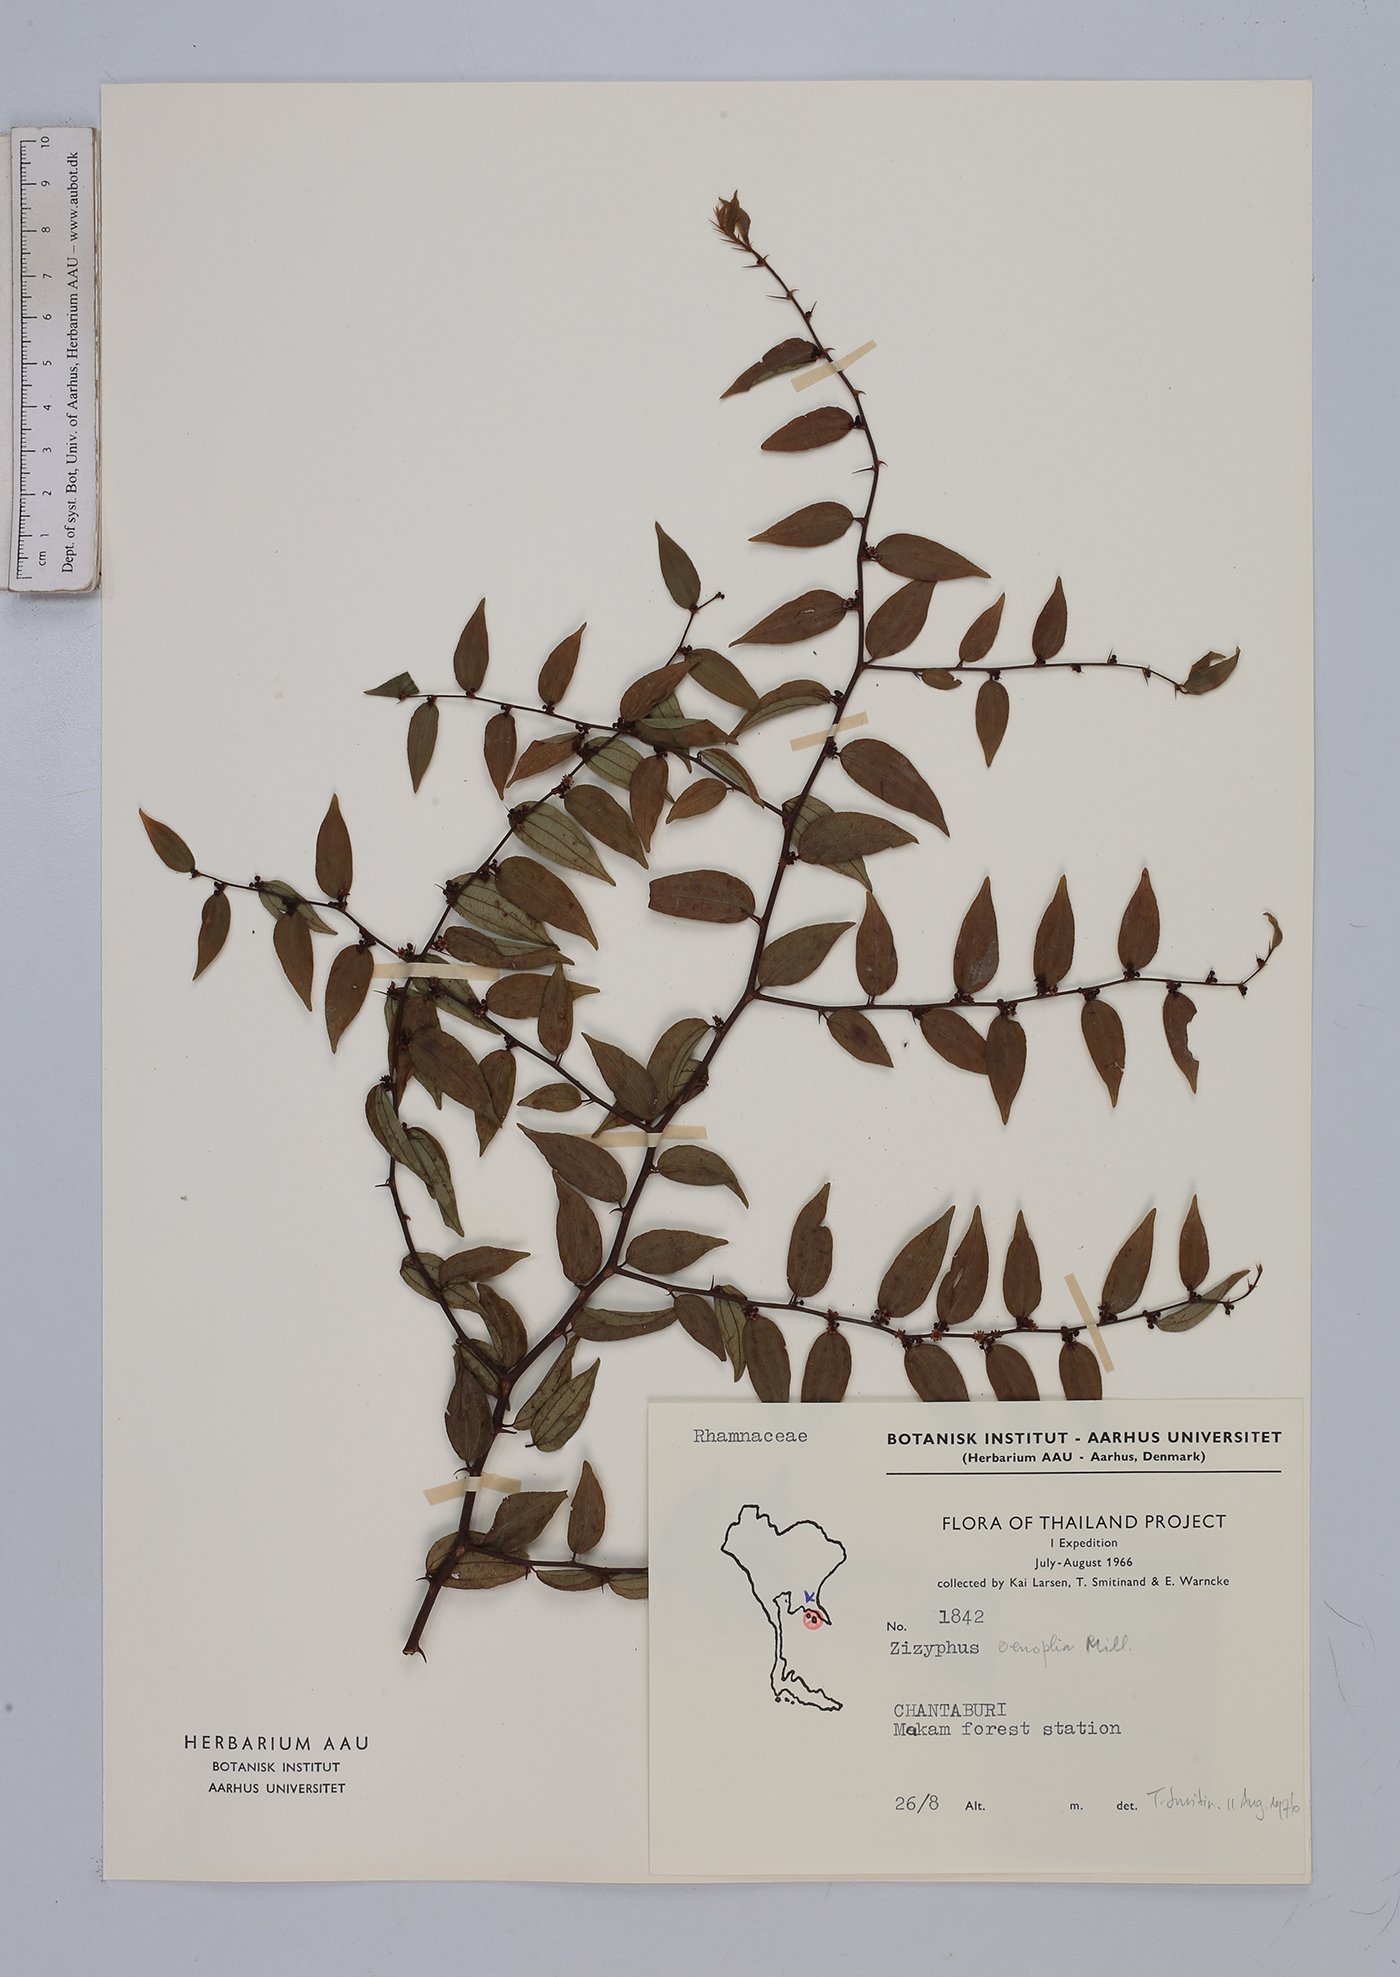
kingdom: Plantae
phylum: Tracheophyta
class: Magnoliopsida
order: Rosales
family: Rhamnaceae
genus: Ziziphus
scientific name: Ziziphus oenopolia
